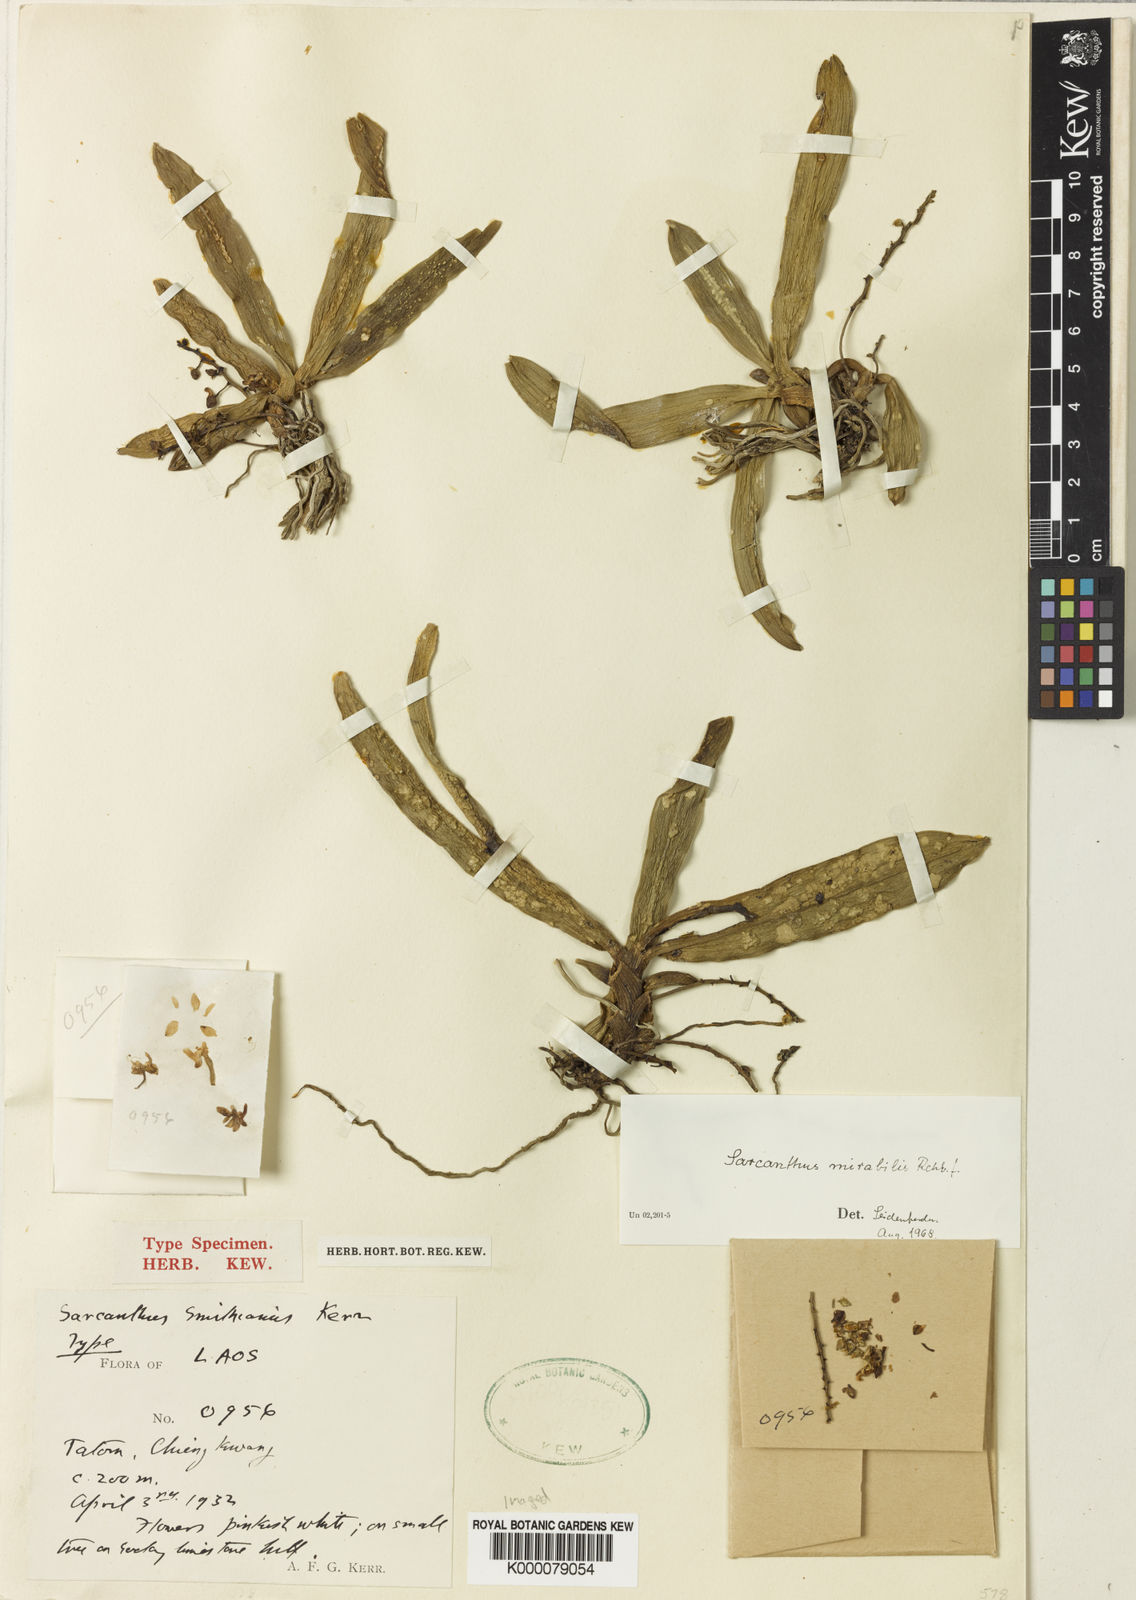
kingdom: Plantae
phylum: Tracheophyta
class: Liliopsida
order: Asparagales
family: Orchidaceae
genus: Sarcoglyphis
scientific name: Sarcoglyphis mirabilis
